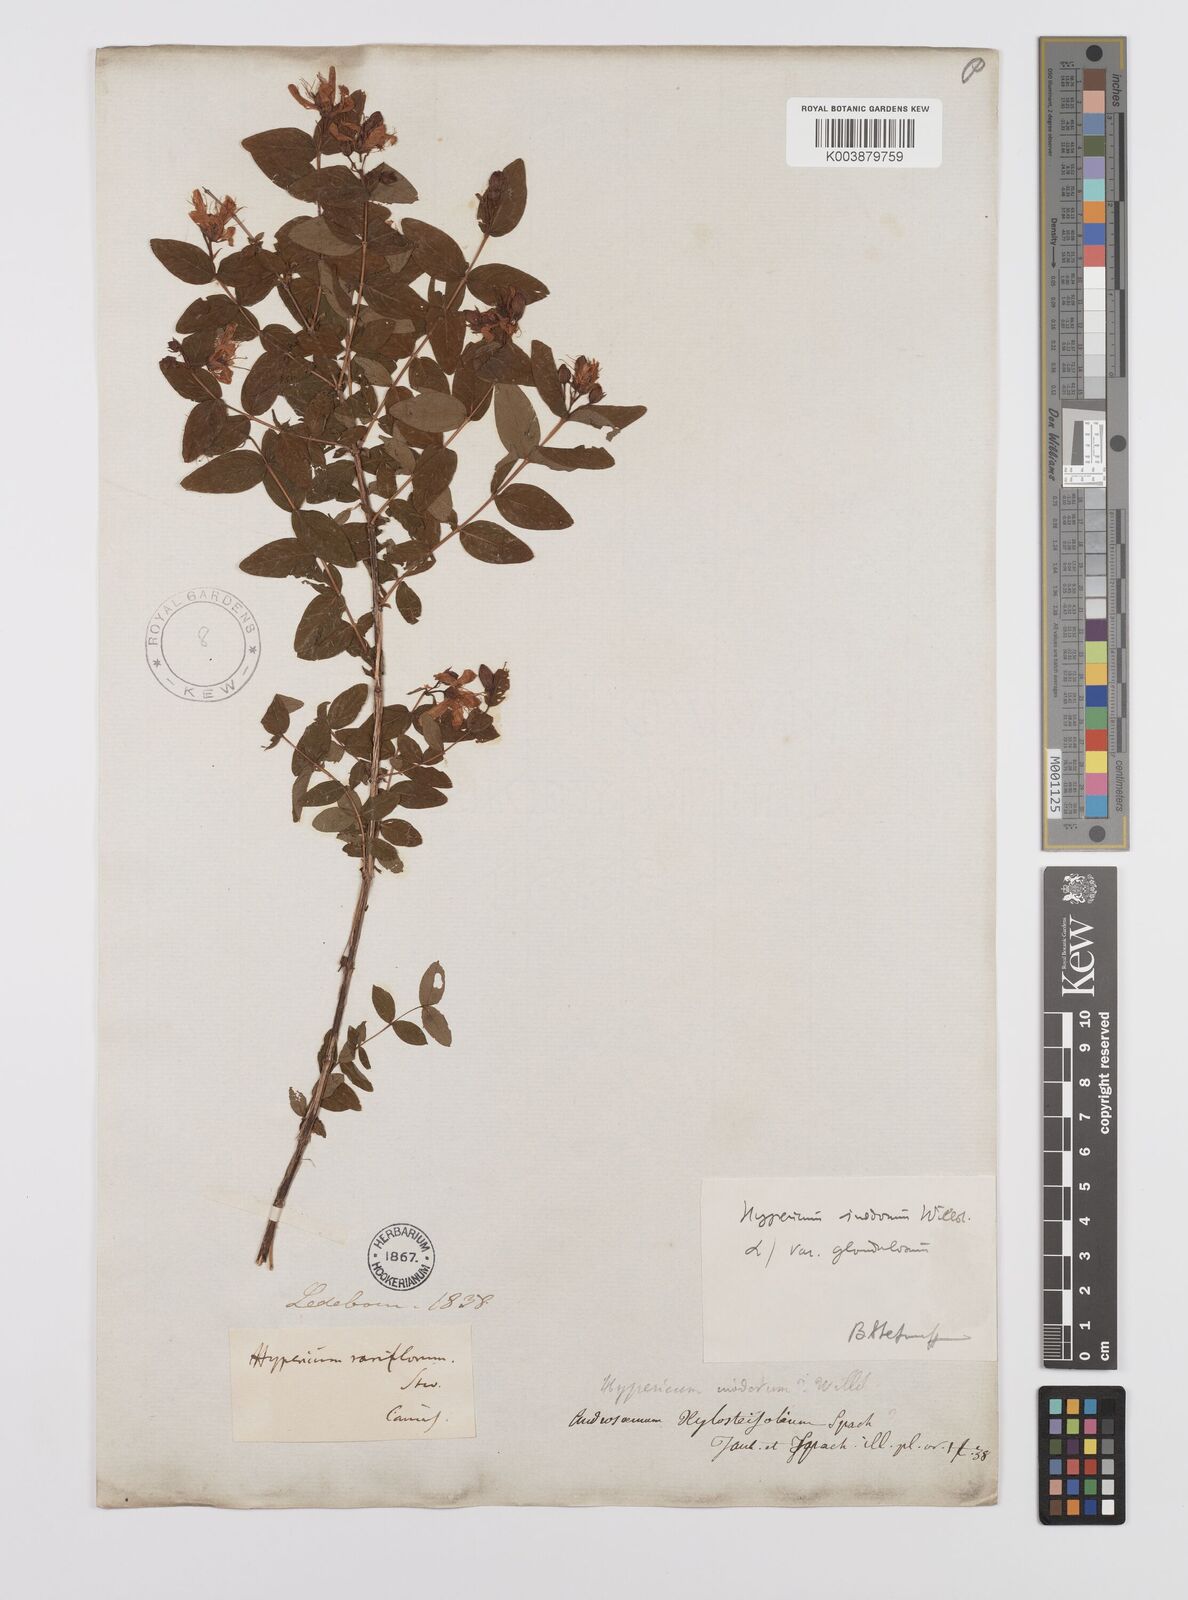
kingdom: Plantae
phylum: Tracheophyta
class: Magnoliopsida
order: Malpighiales
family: Hypericaceae
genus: Hypericum
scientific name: Hypericum xylosteifolium
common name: Turkish tutsan
